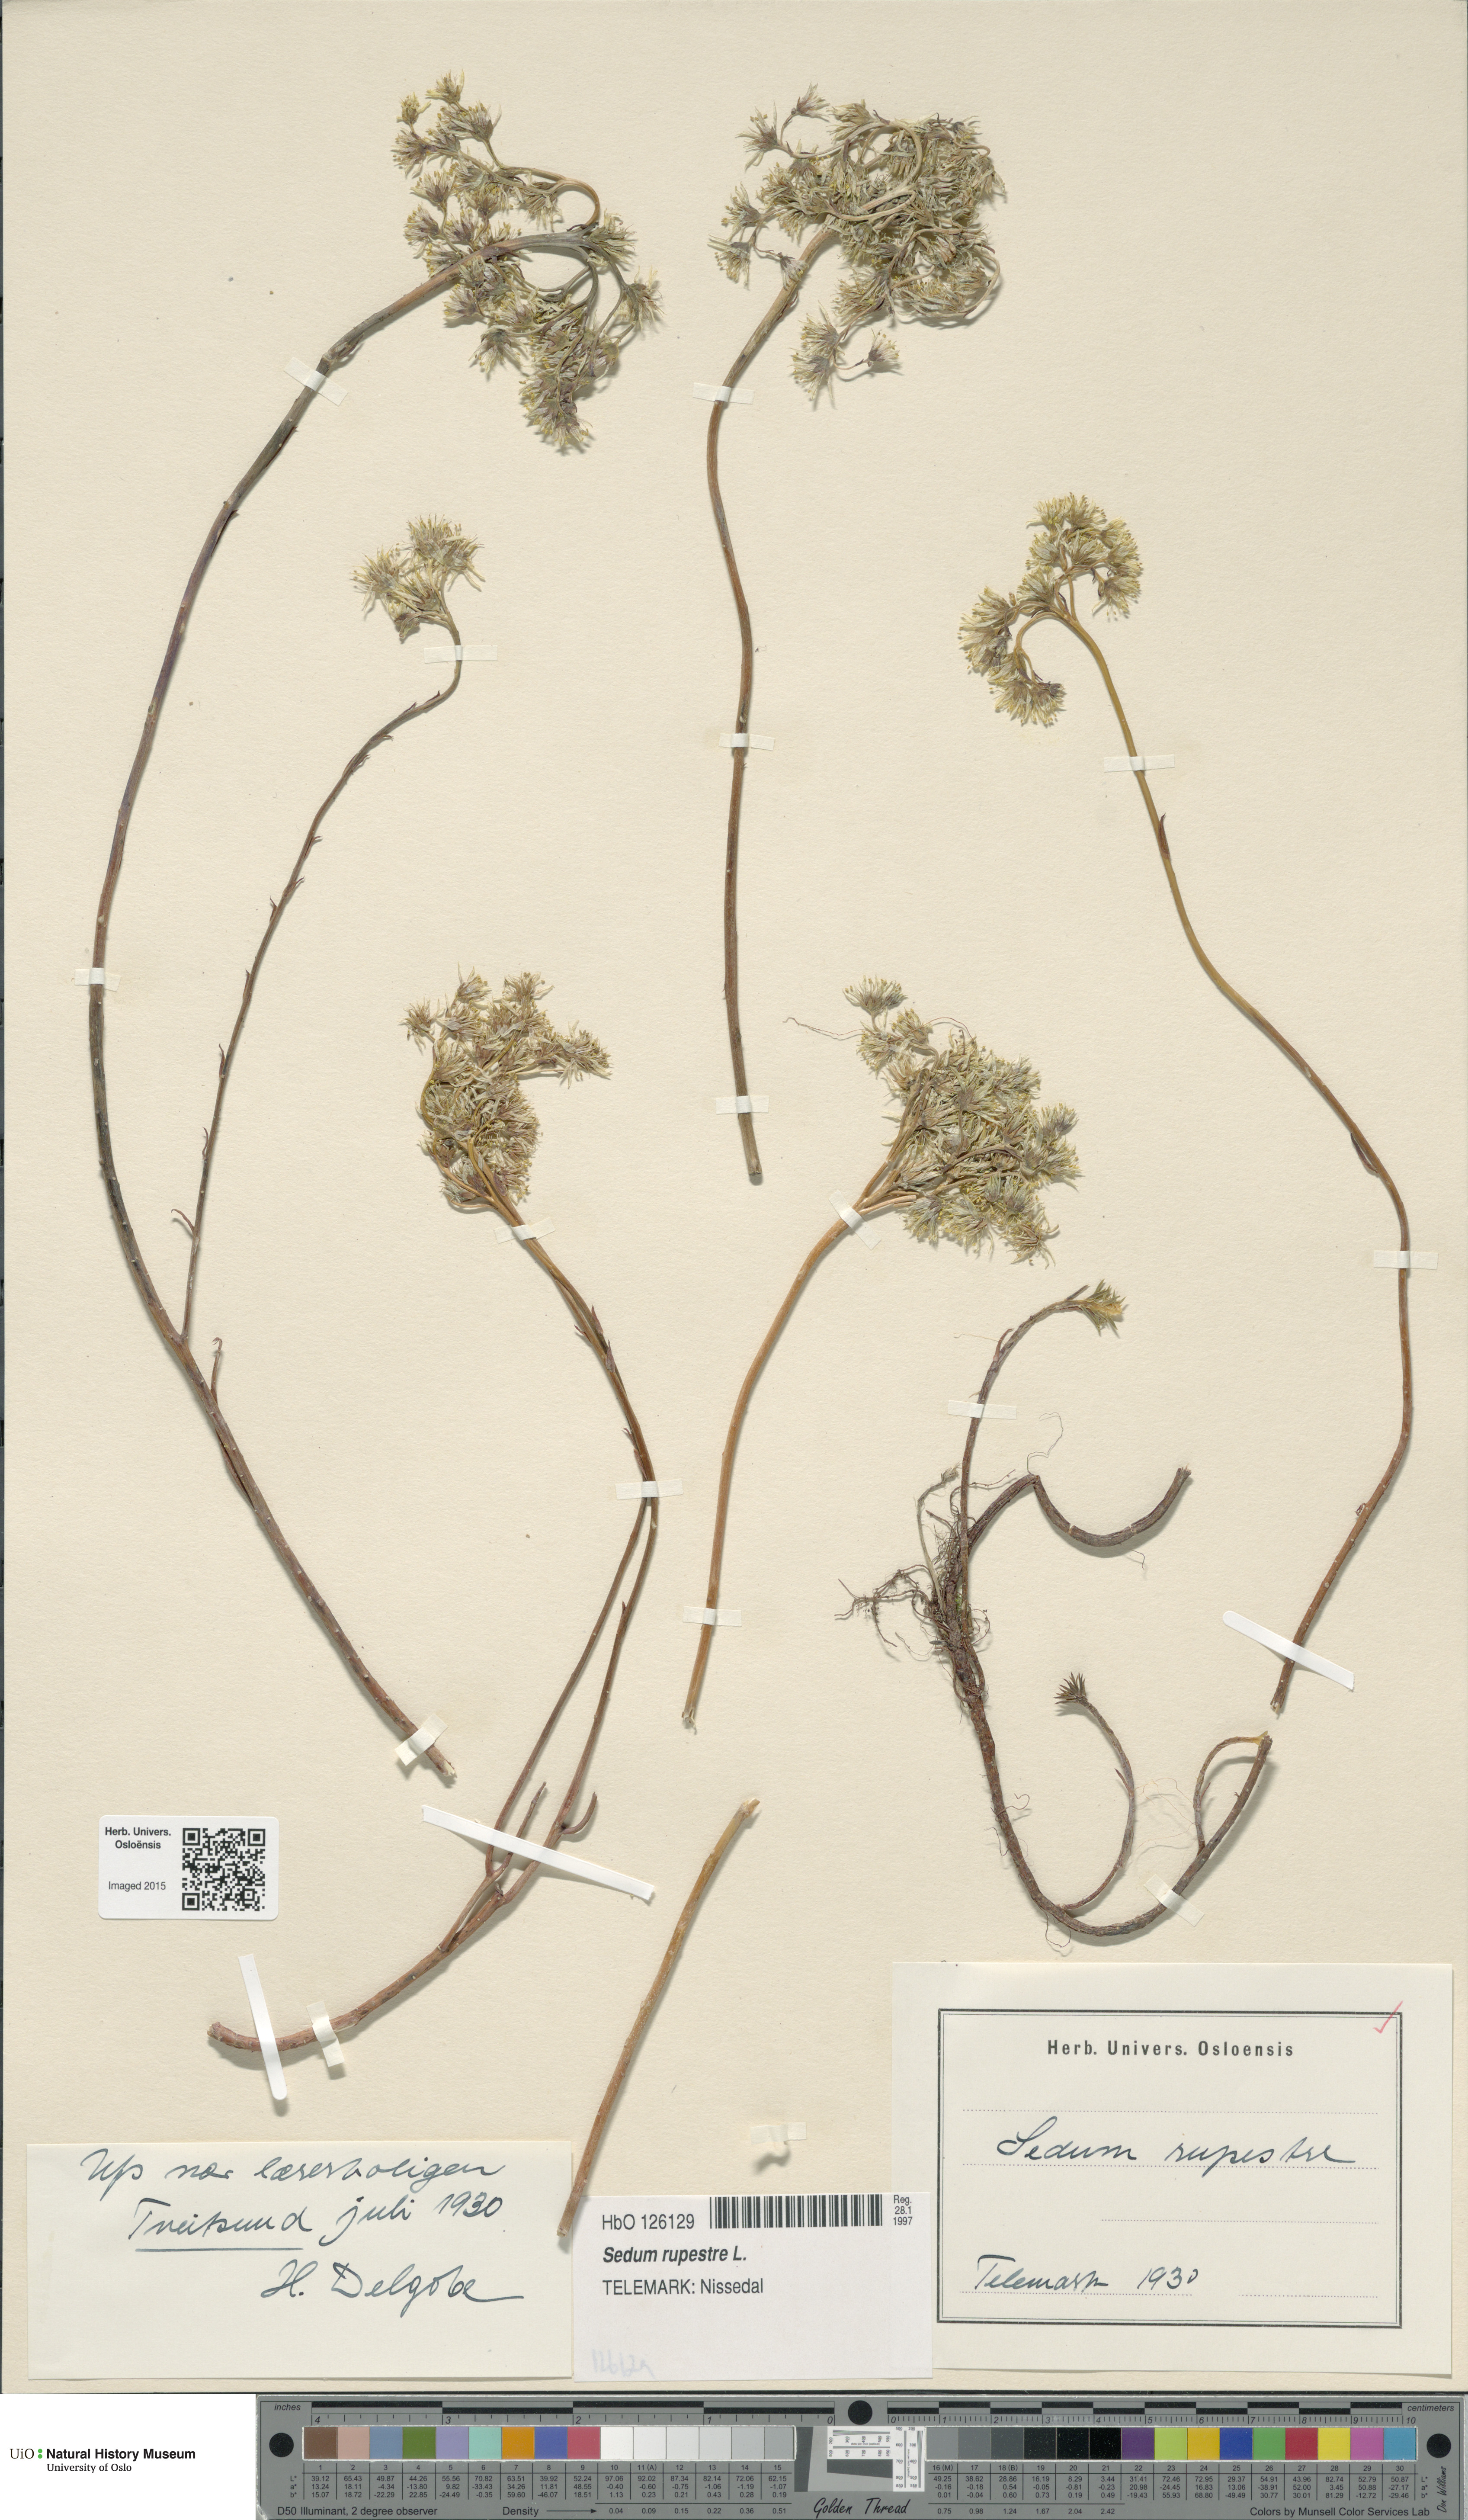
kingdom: Plantae
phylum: Tracheophyta
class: Magnoliopsida
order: Saxifragales
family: Crassulaceae
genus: Petrosedum
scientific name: Petrosedum rupestre
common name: Jenny's stonecrop
